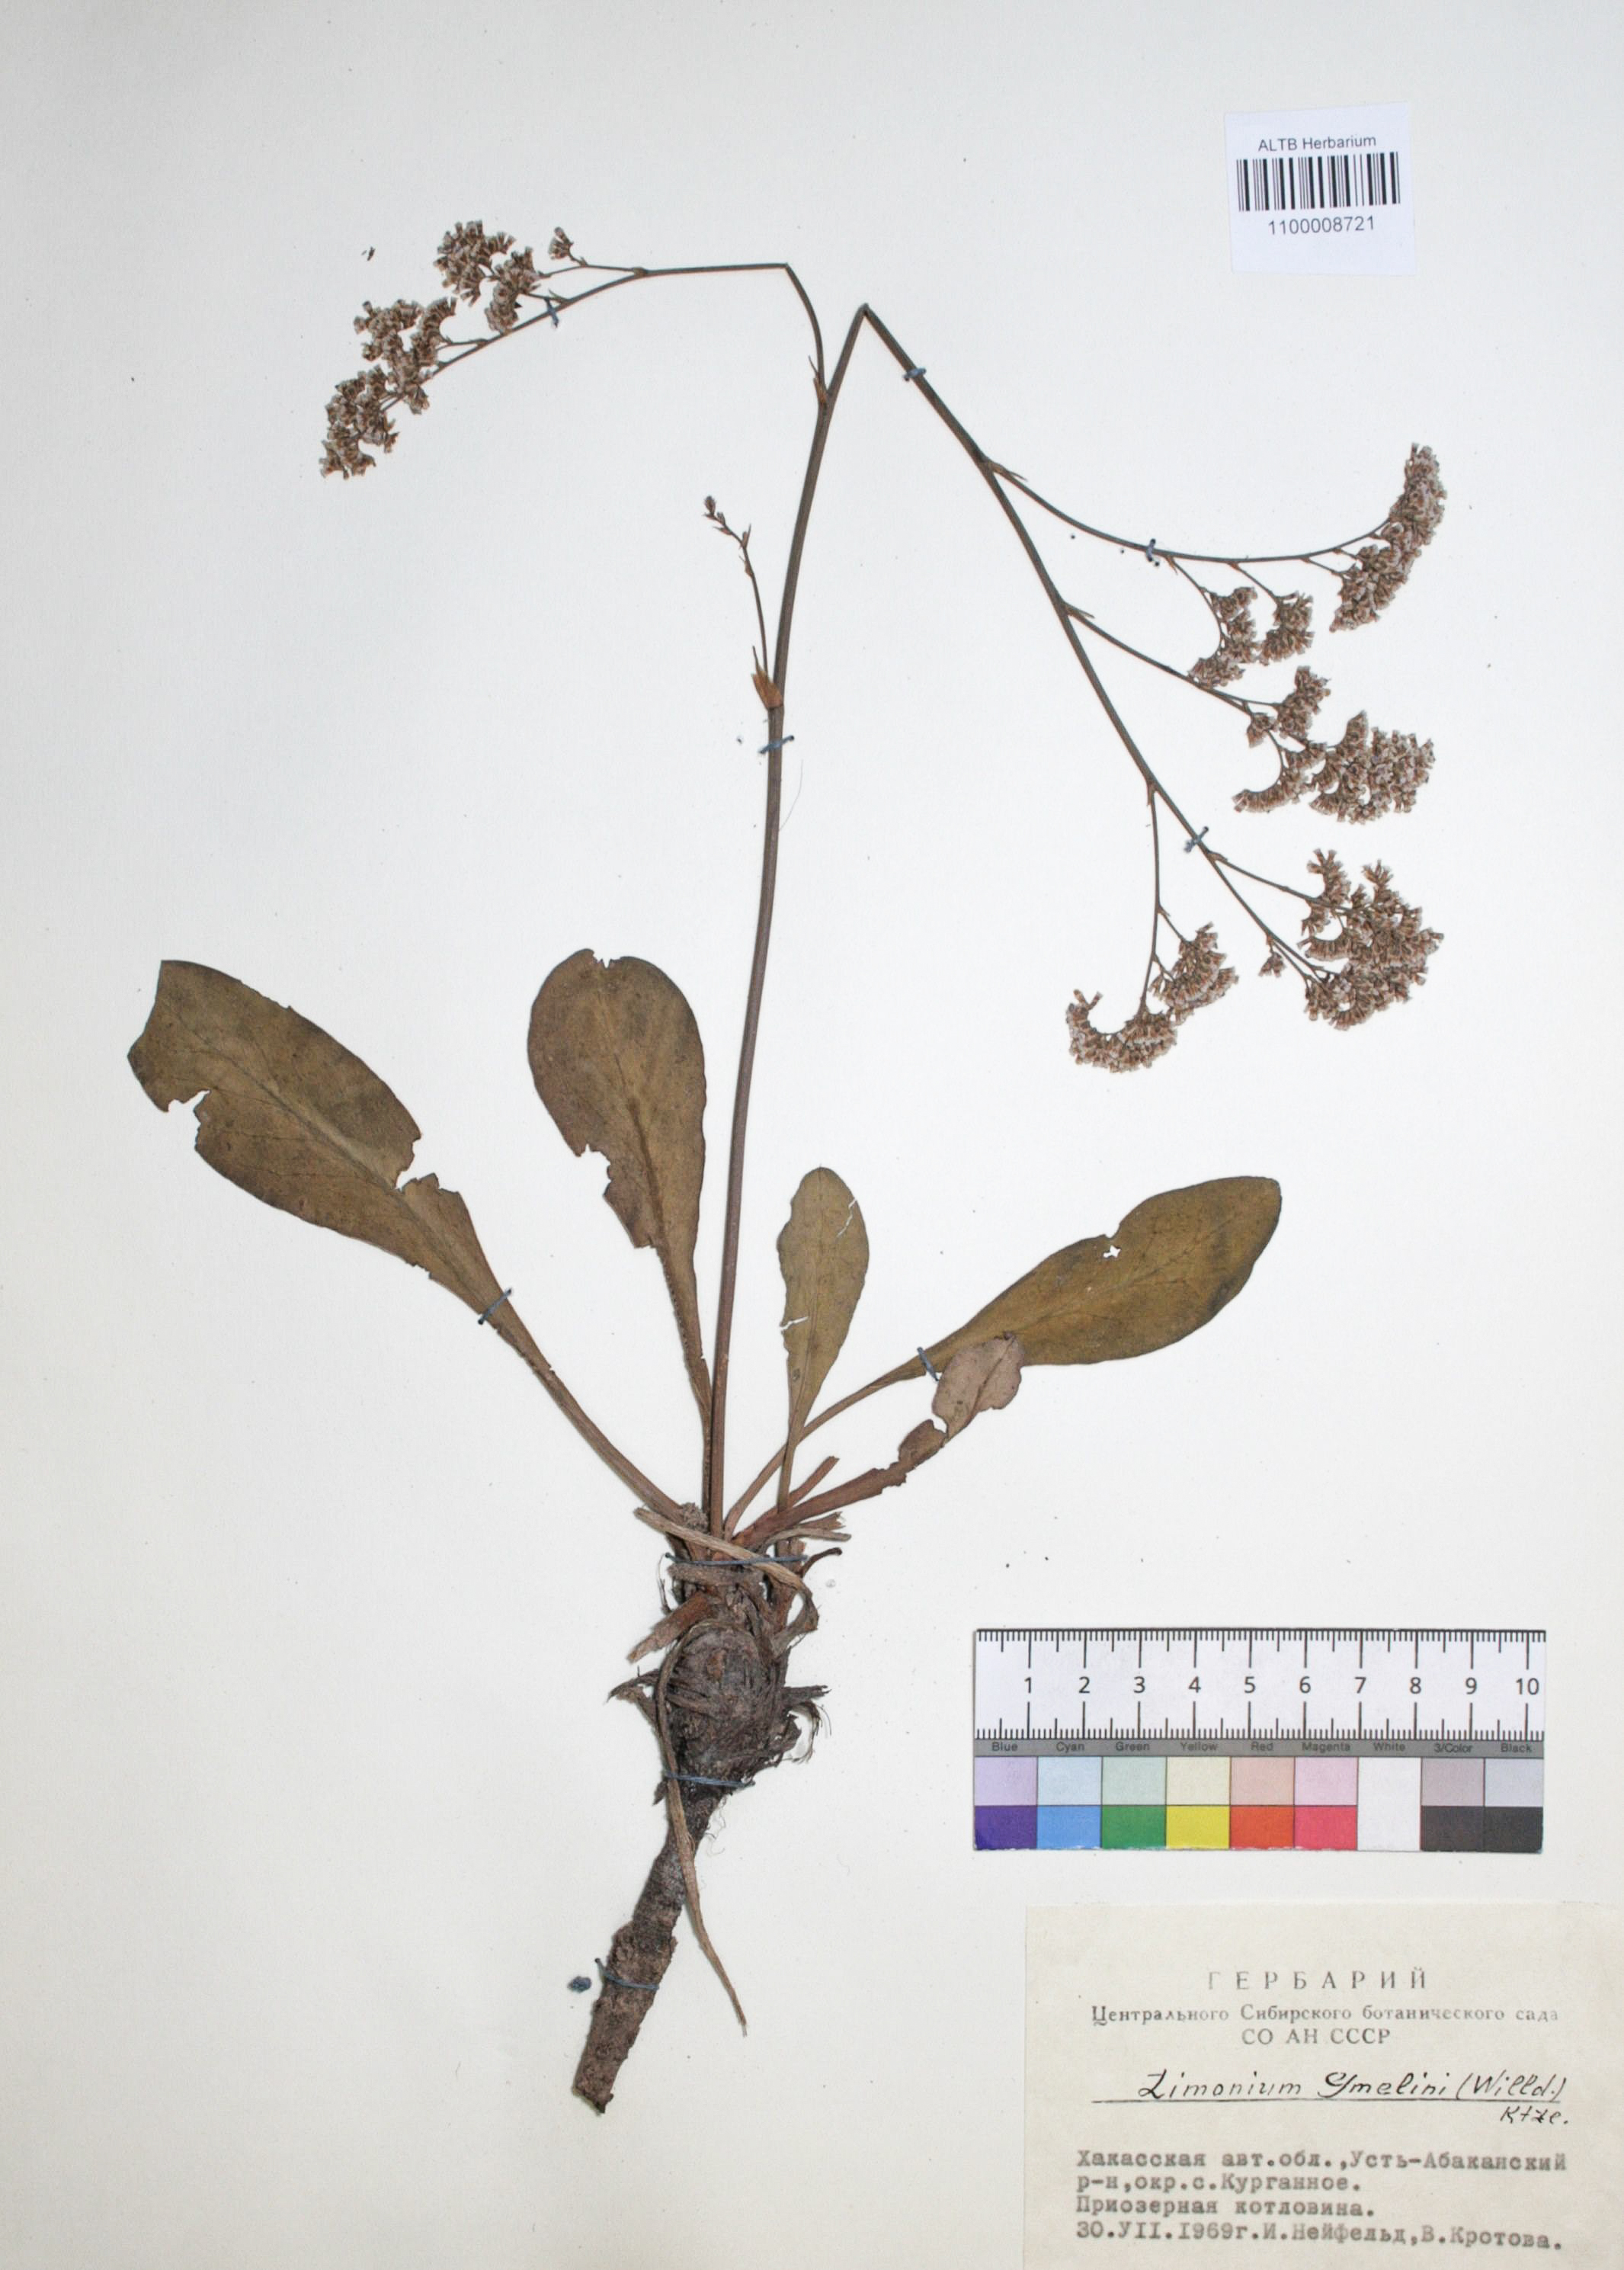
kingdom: Plantae
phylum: Tracheophyta
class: Magnoliopsida
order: Caryophyllales
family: Plumbaginaceae
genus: Limonium
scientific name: Limonium gmelini
